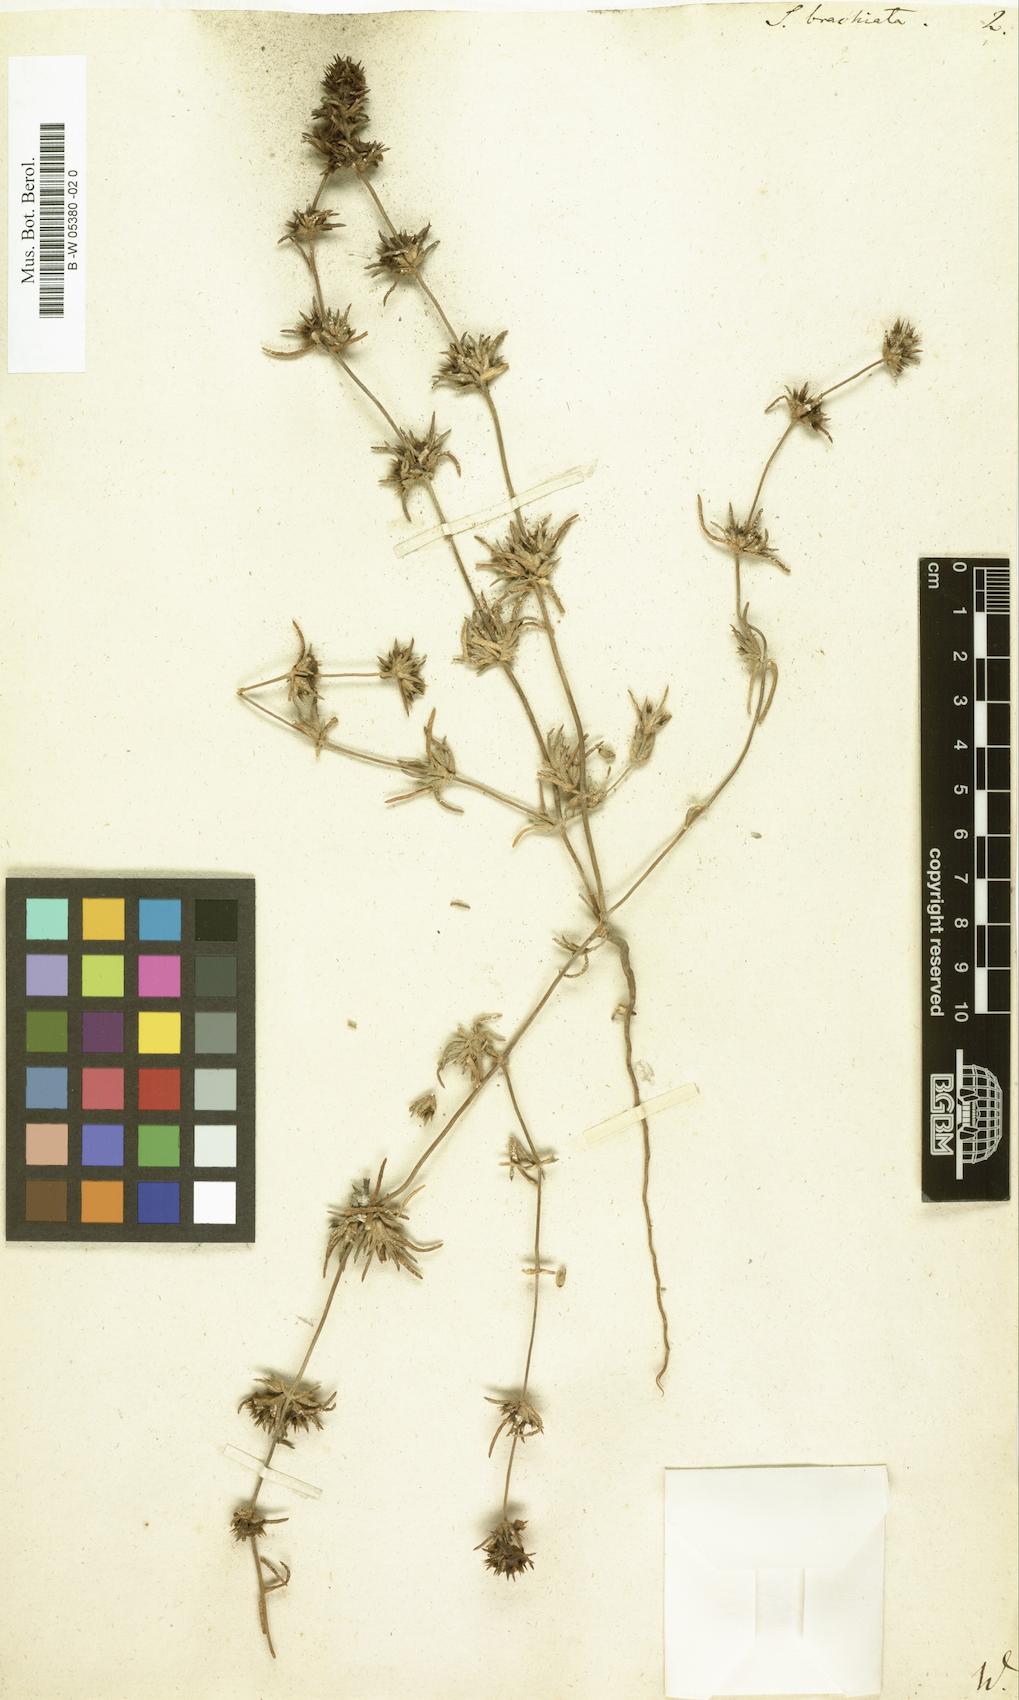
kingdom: Plantae
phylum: Tracheophyta
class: Magnoliopsida
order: Caryophyllales
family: Amaranthaceae
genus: Pyankovia
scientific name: Pyankovia brachiata
